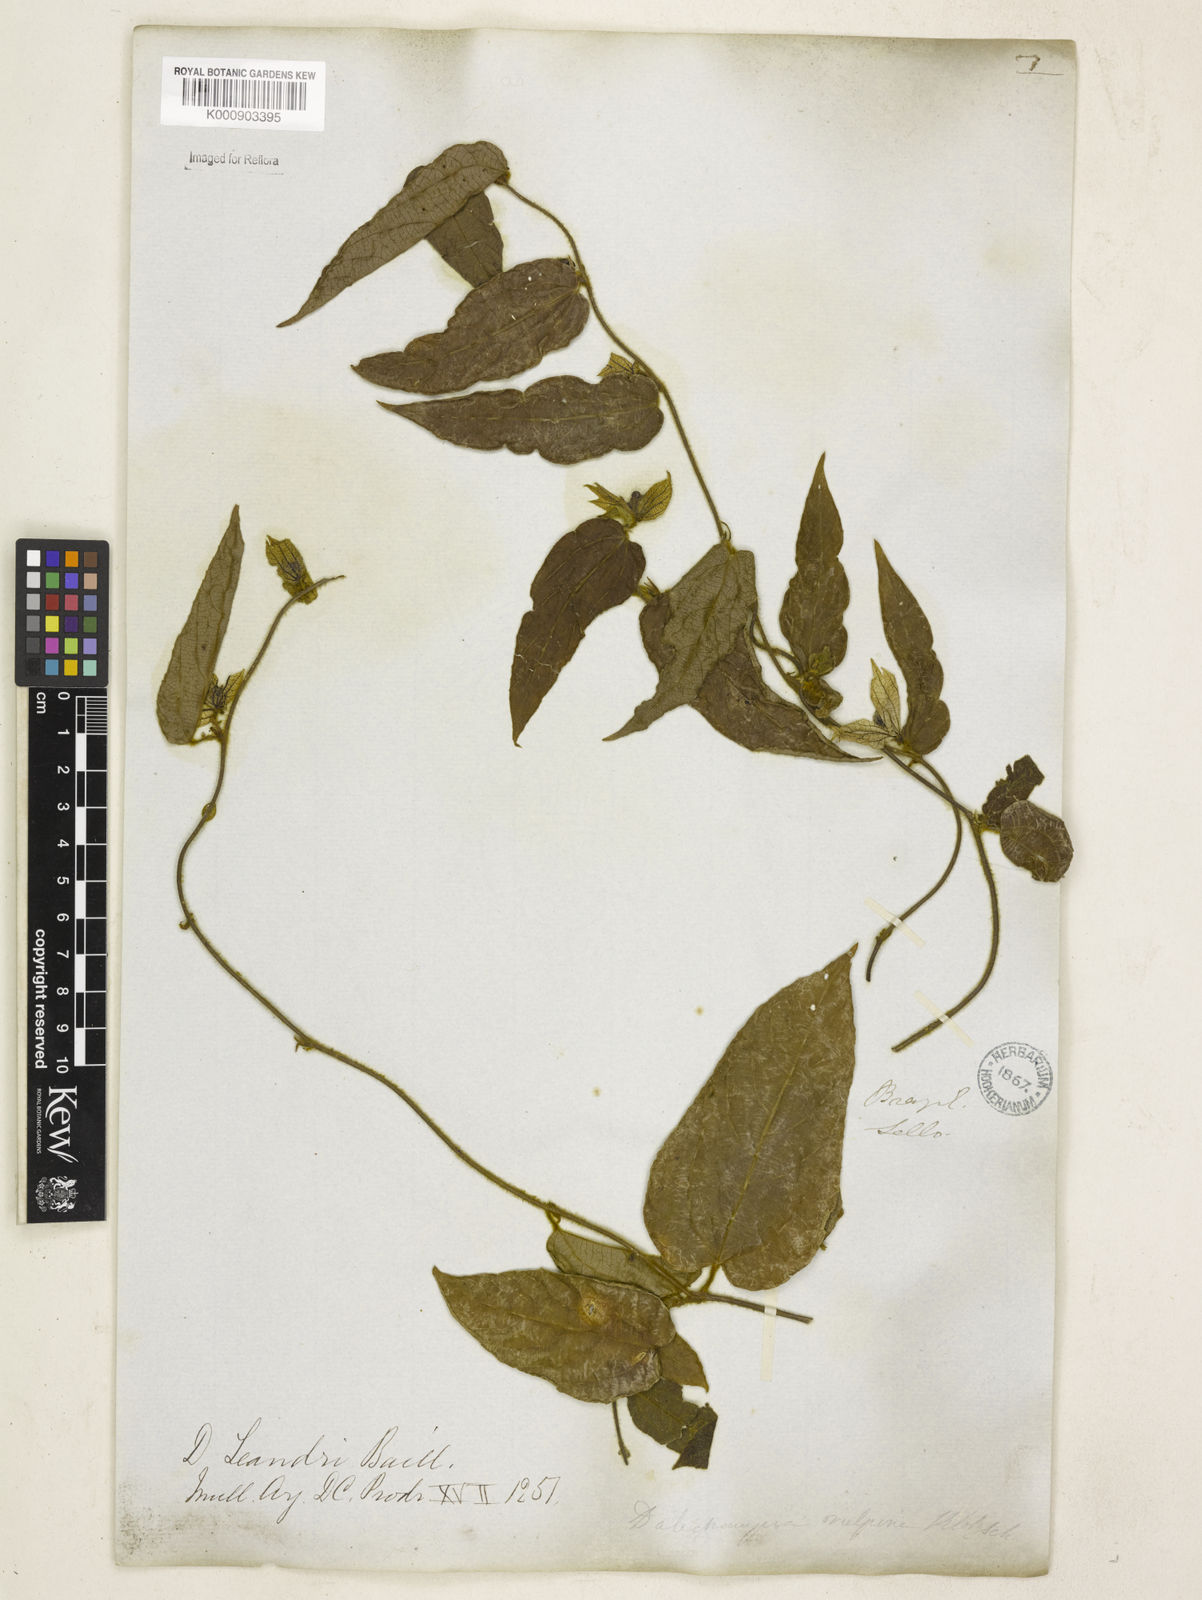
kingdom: Plantae
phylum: Tracheophyta
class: Magnoliopsida
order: Malpighiales
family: Euphorbiaceae
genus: Dalechampia
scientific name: Dalechampia leandrii
